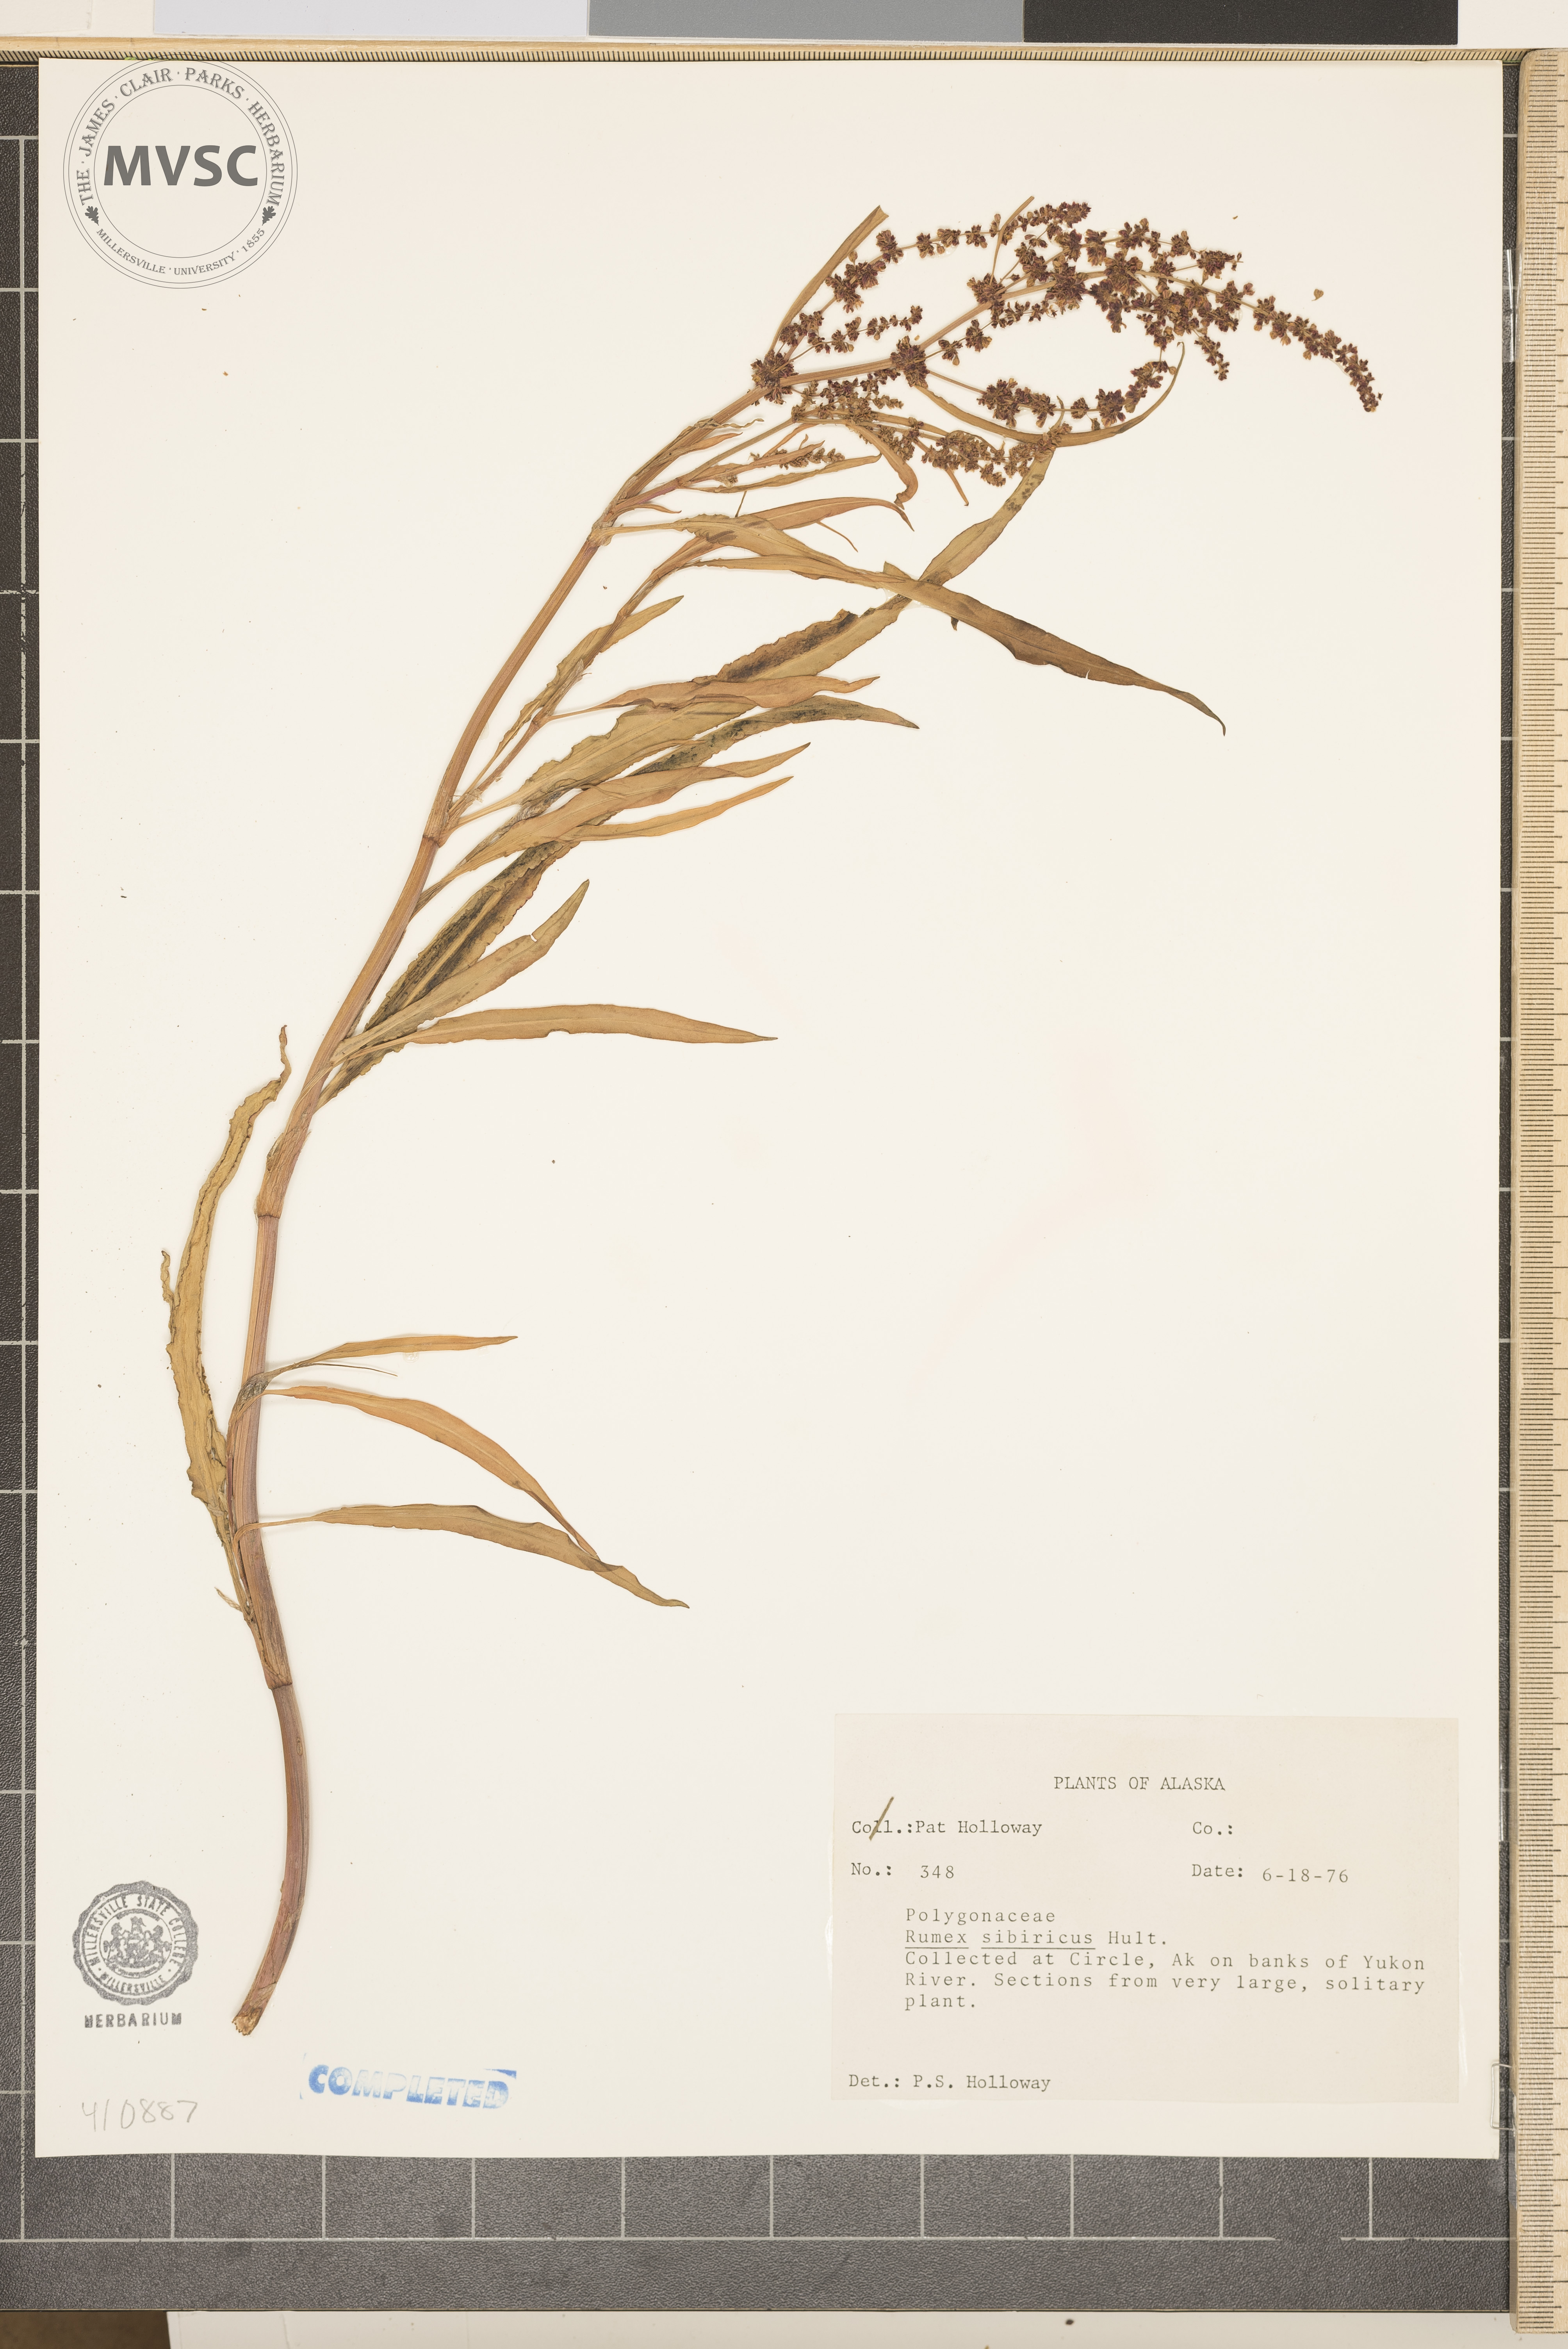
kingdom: Plantae
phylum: Tracheophyta
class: Magnoliopsida
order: Caryophyllales
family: Polygonaceae
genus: Rumex
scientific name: Rumex sibiricus
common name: Siberian dock
